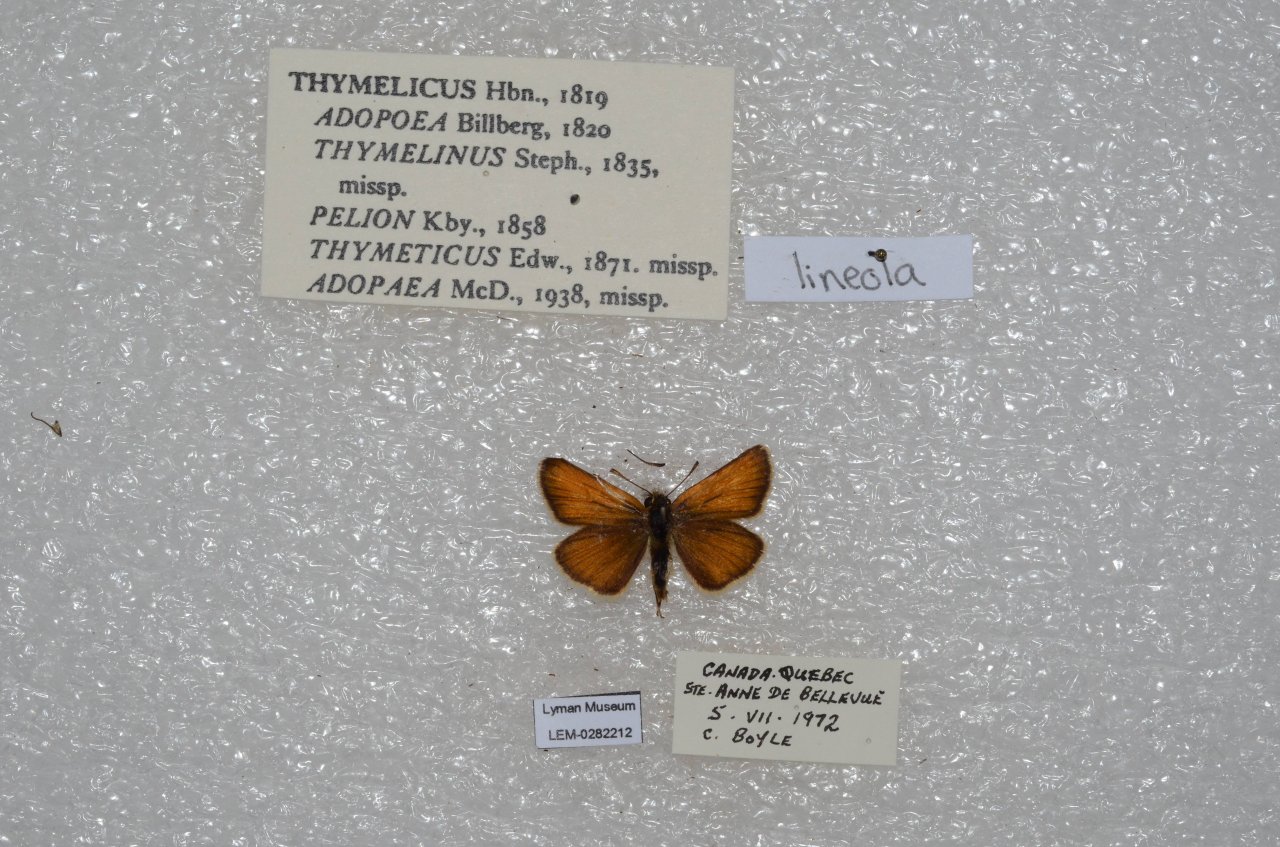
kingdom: Animalia
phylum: Arthropoda
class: Insecta
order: Lepidoptera
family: Hesperiidae
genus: Thymelicus
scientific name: Thymelicus lineola
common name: European Skipper
